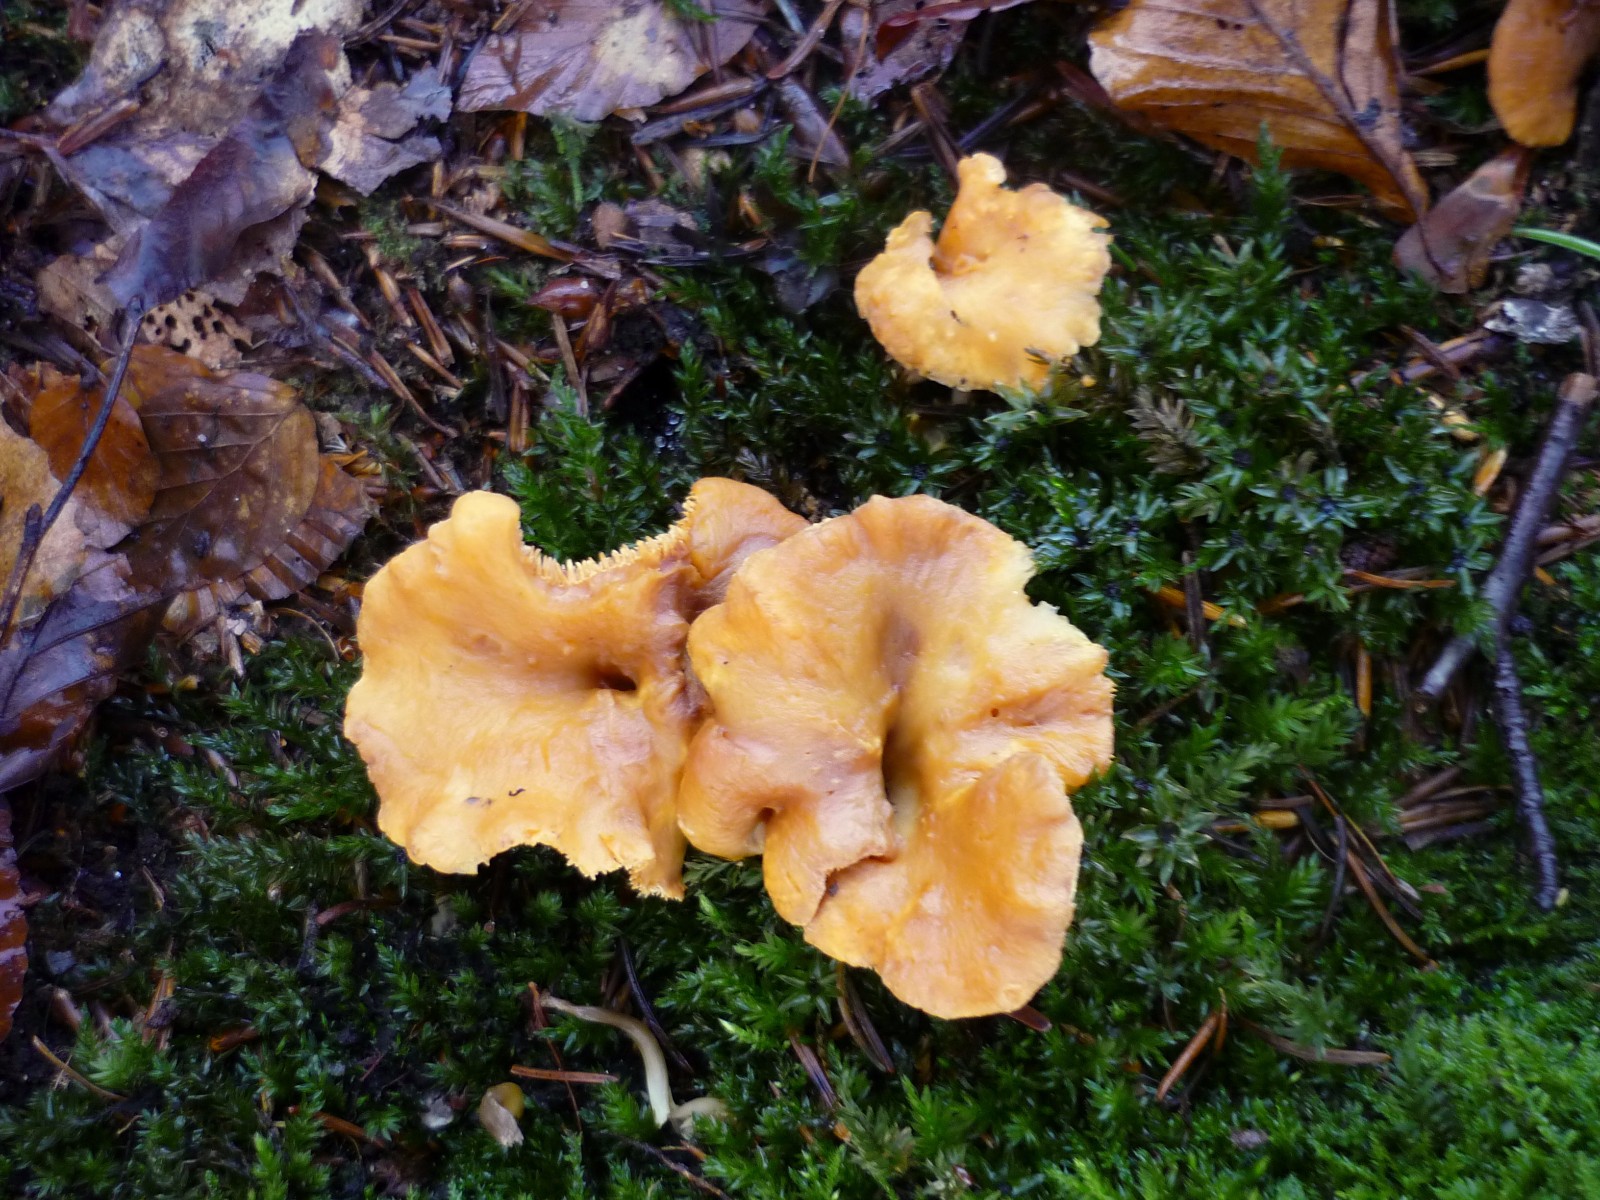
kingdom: Fungi
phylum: Basidiomycota
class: Agaricomycetes
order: Cantharellales
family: Hydnaceae
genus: Hydnum
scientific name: Hydnum rufescens
